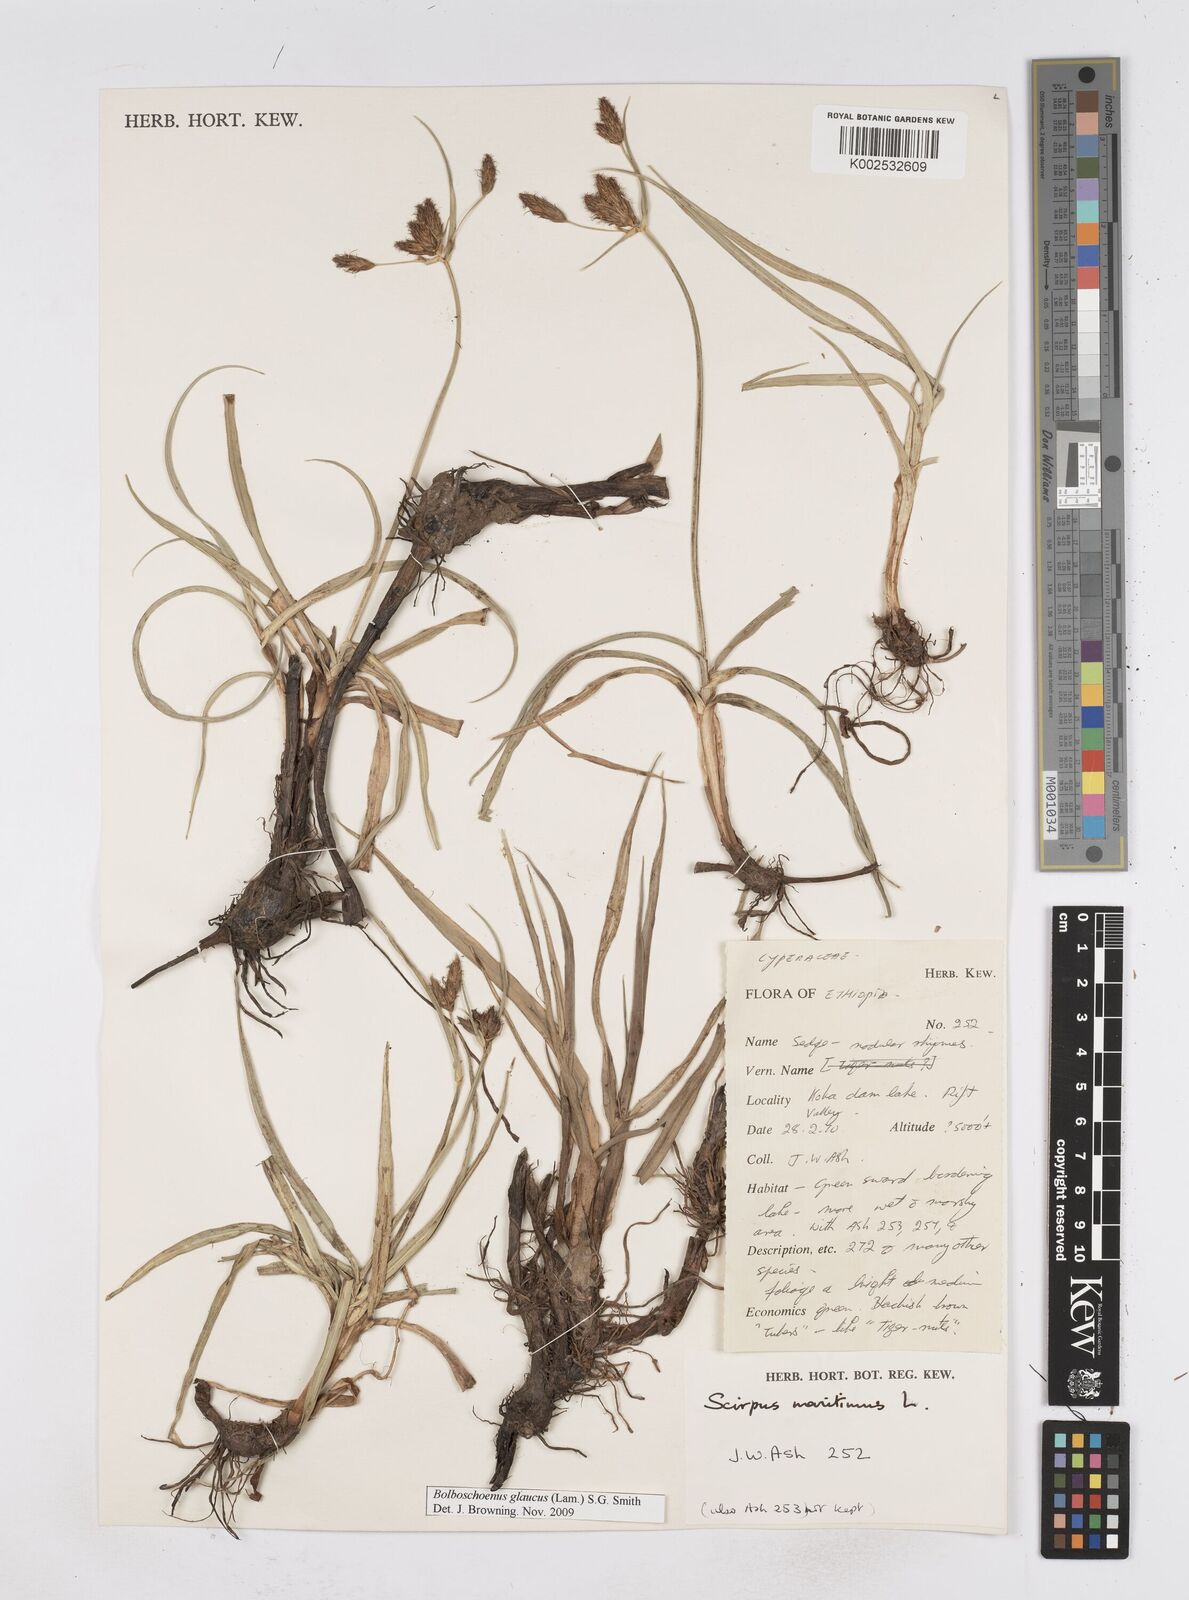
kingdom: Plantae
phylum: Tracheophyta
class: Liliopsida
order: Poales
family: Cyperaceae
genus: Bolboschoenus
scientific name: Bolboschoenus glaucus
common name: Tuberous bulrush
